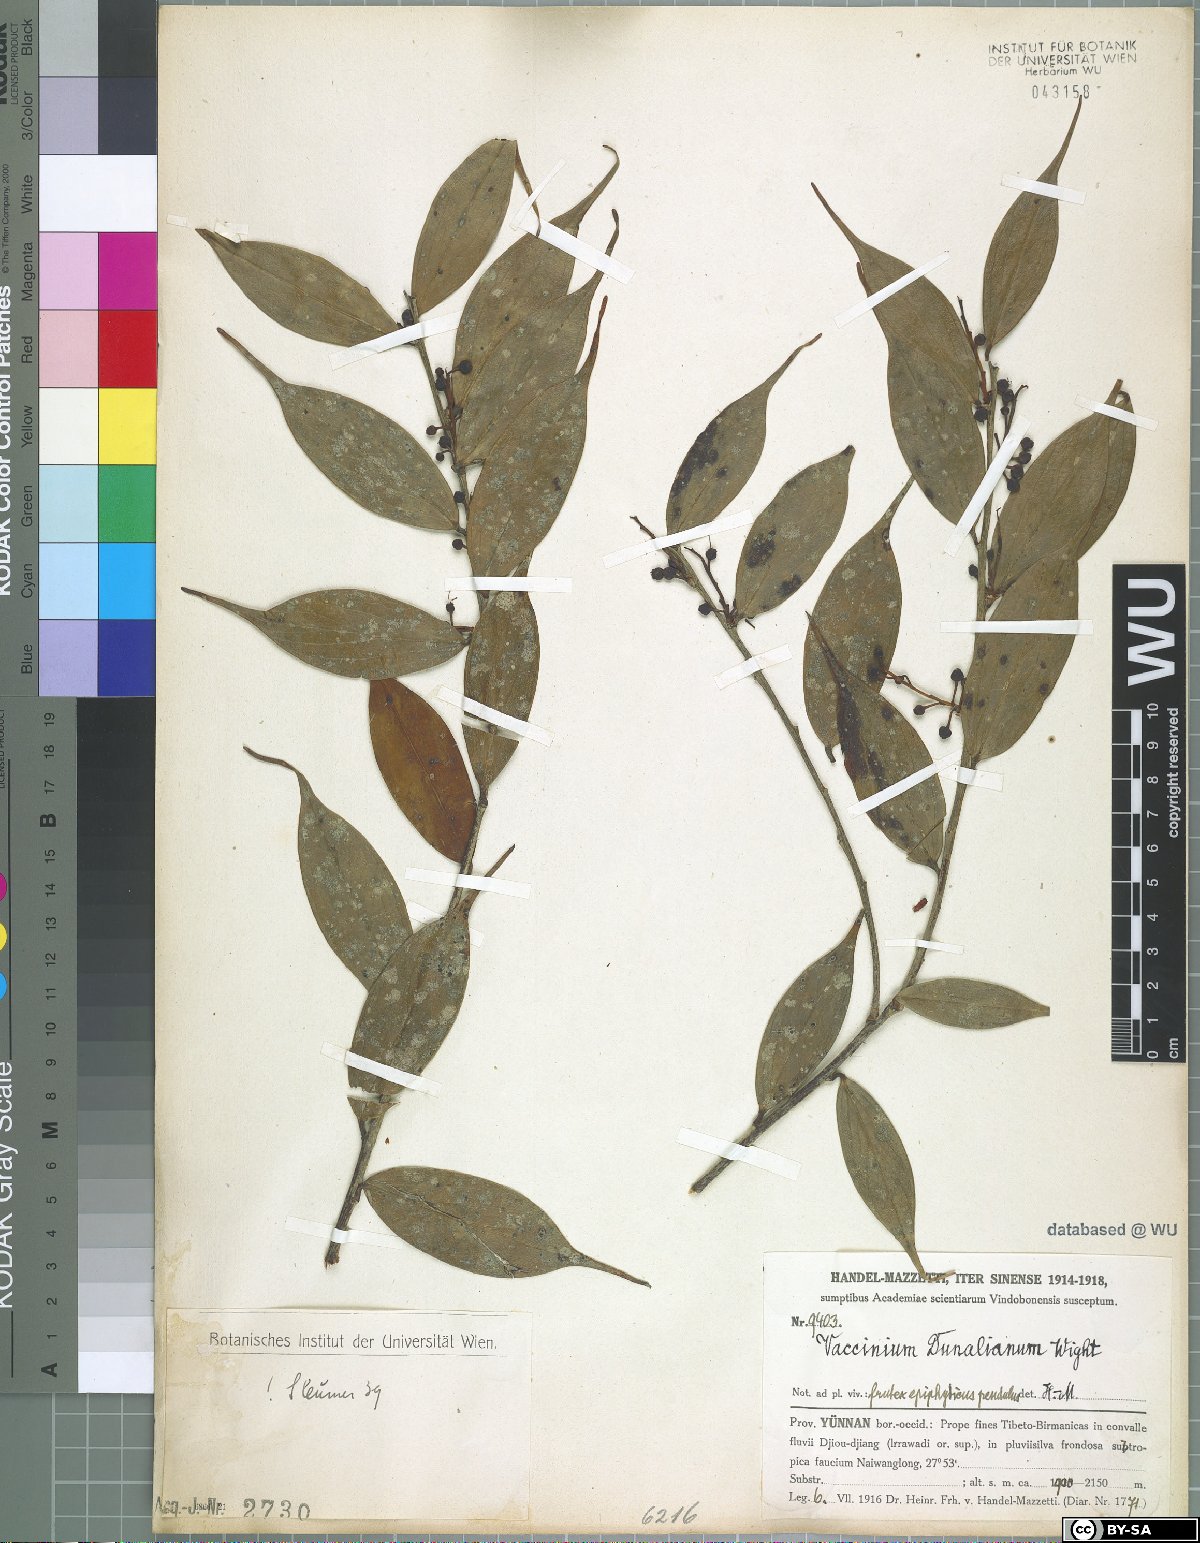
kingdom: Plantae
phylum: Tracheophyta
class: Magnoliopsida
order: Ericales
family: Ericaceae
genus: Vaccinium
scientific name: Vaccinium dunalianum
